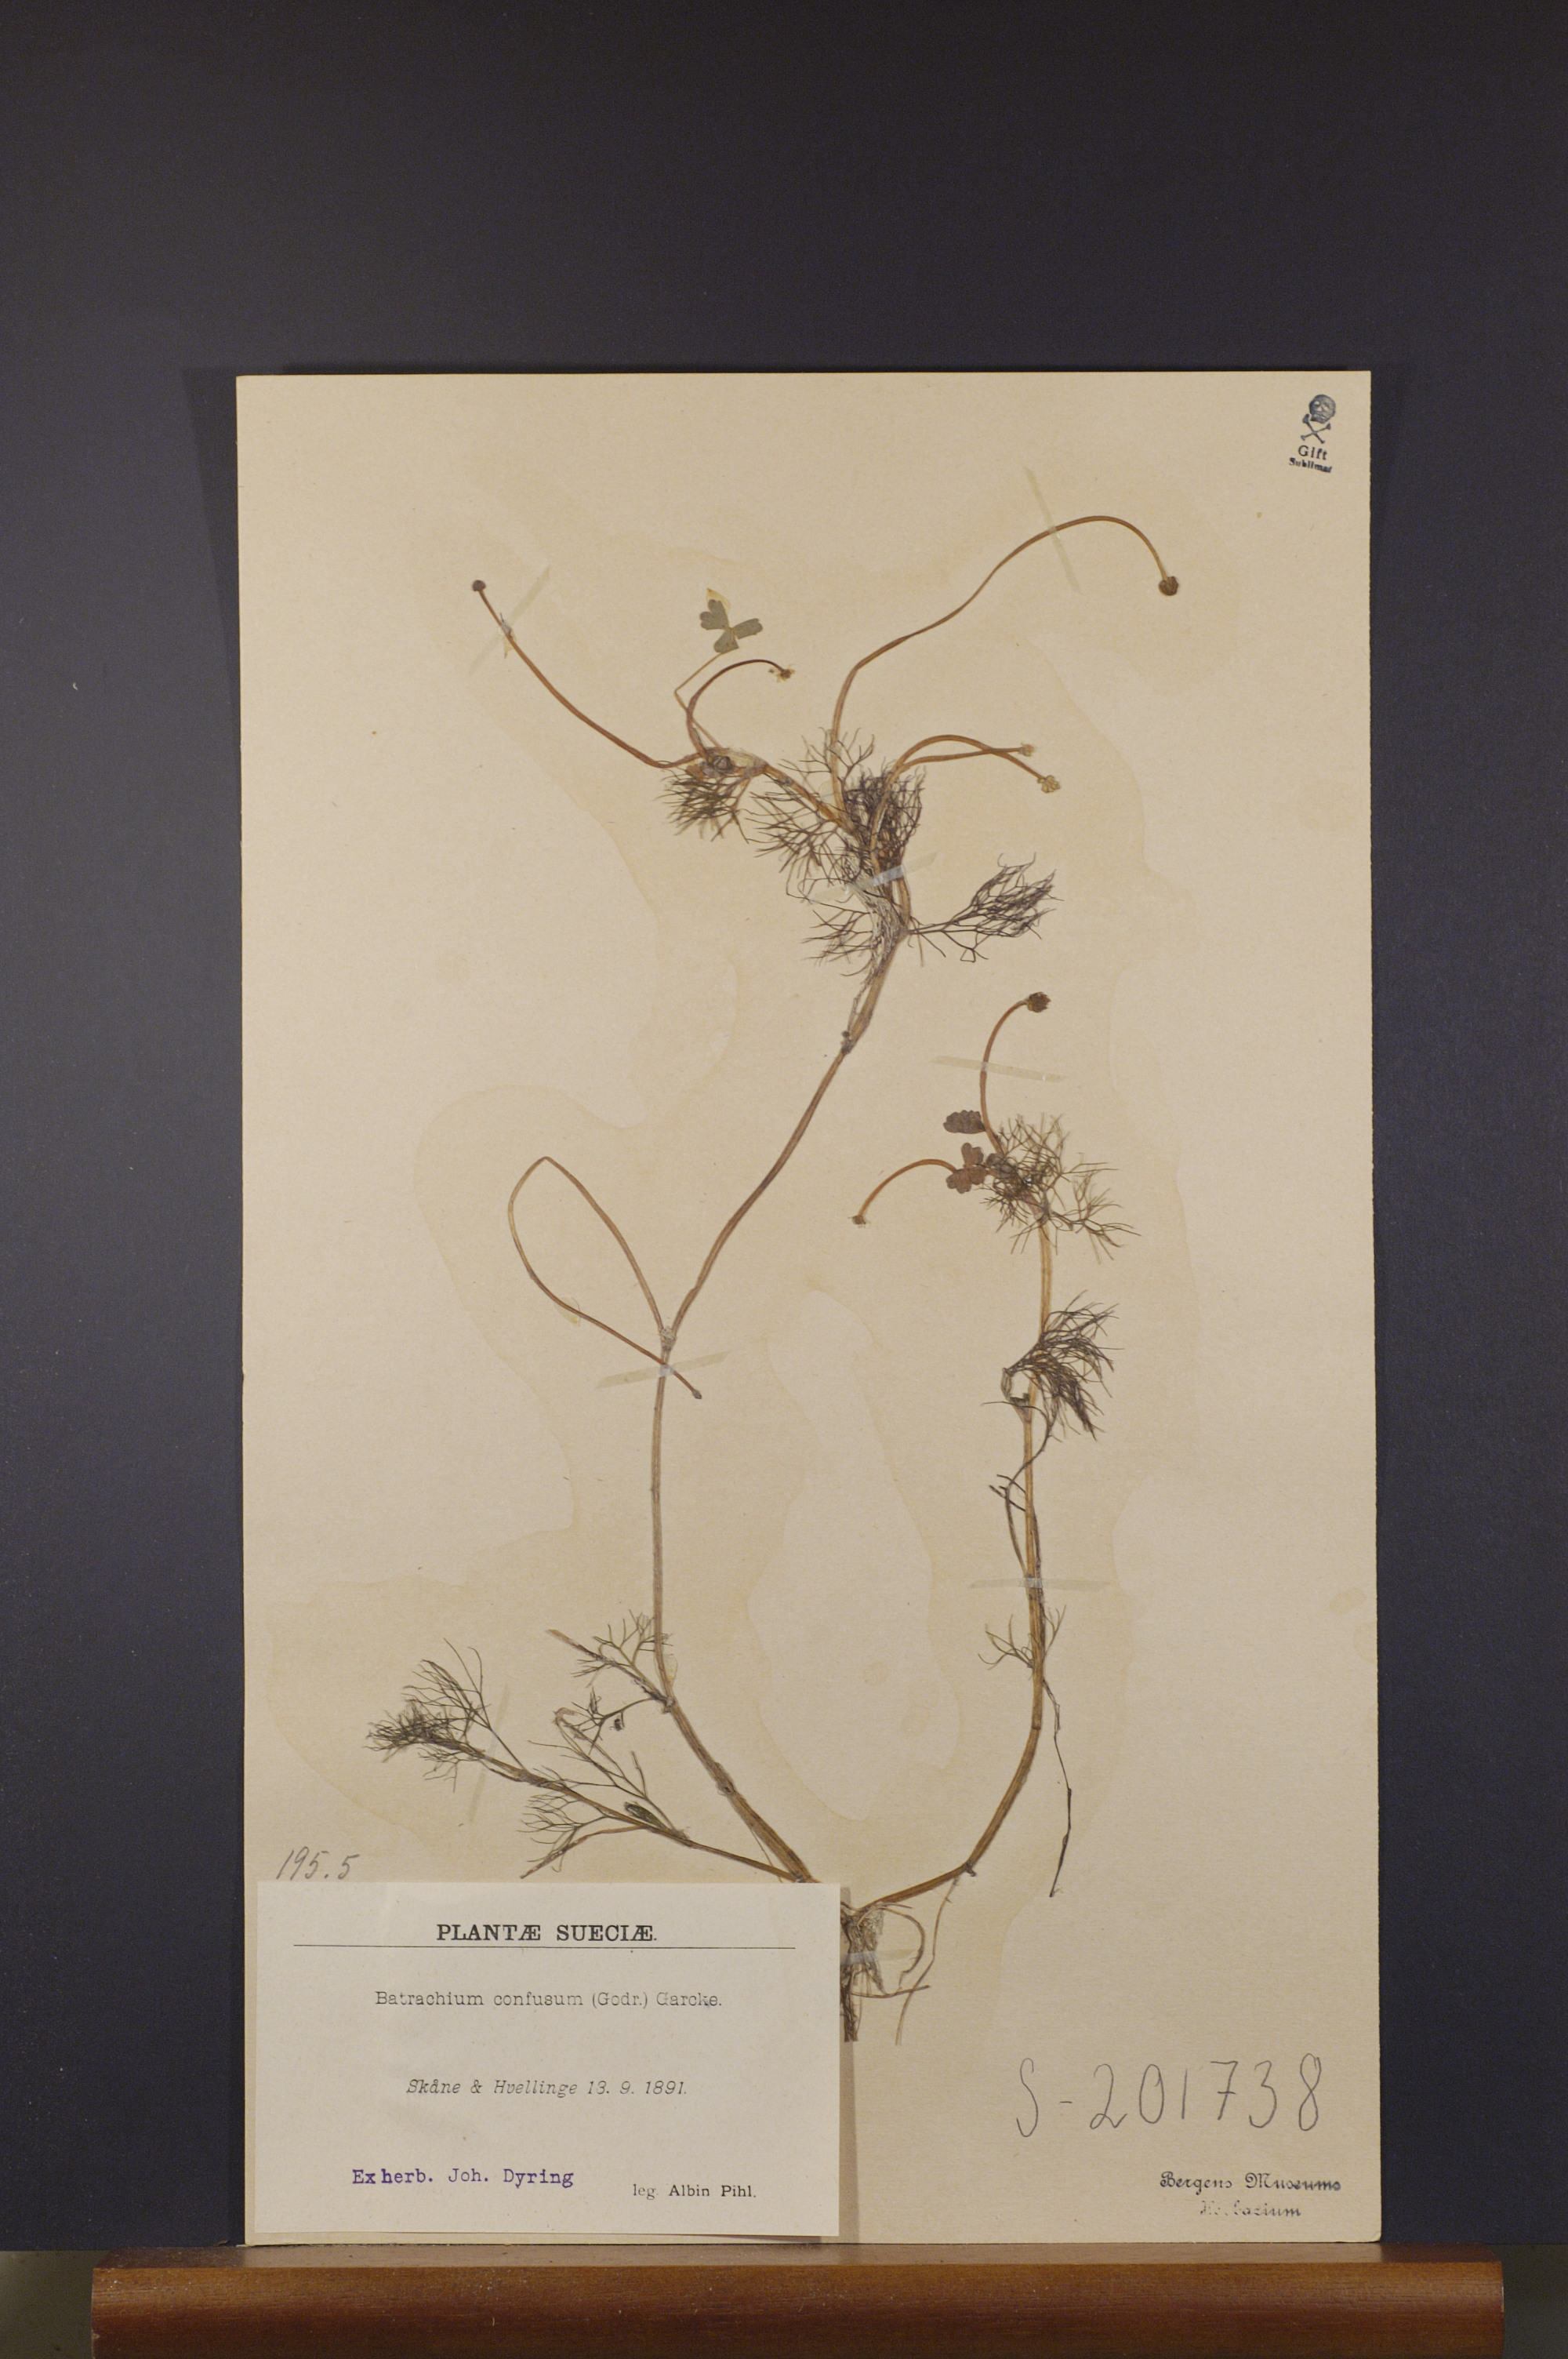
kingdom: Plantae
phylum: Tracheophyta
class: Magnoliopsida
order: Ranunculales
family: Ranunculaceae
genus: Ranunculus
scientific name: Ranunculus peltatus
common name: Pond water-crowfoot
